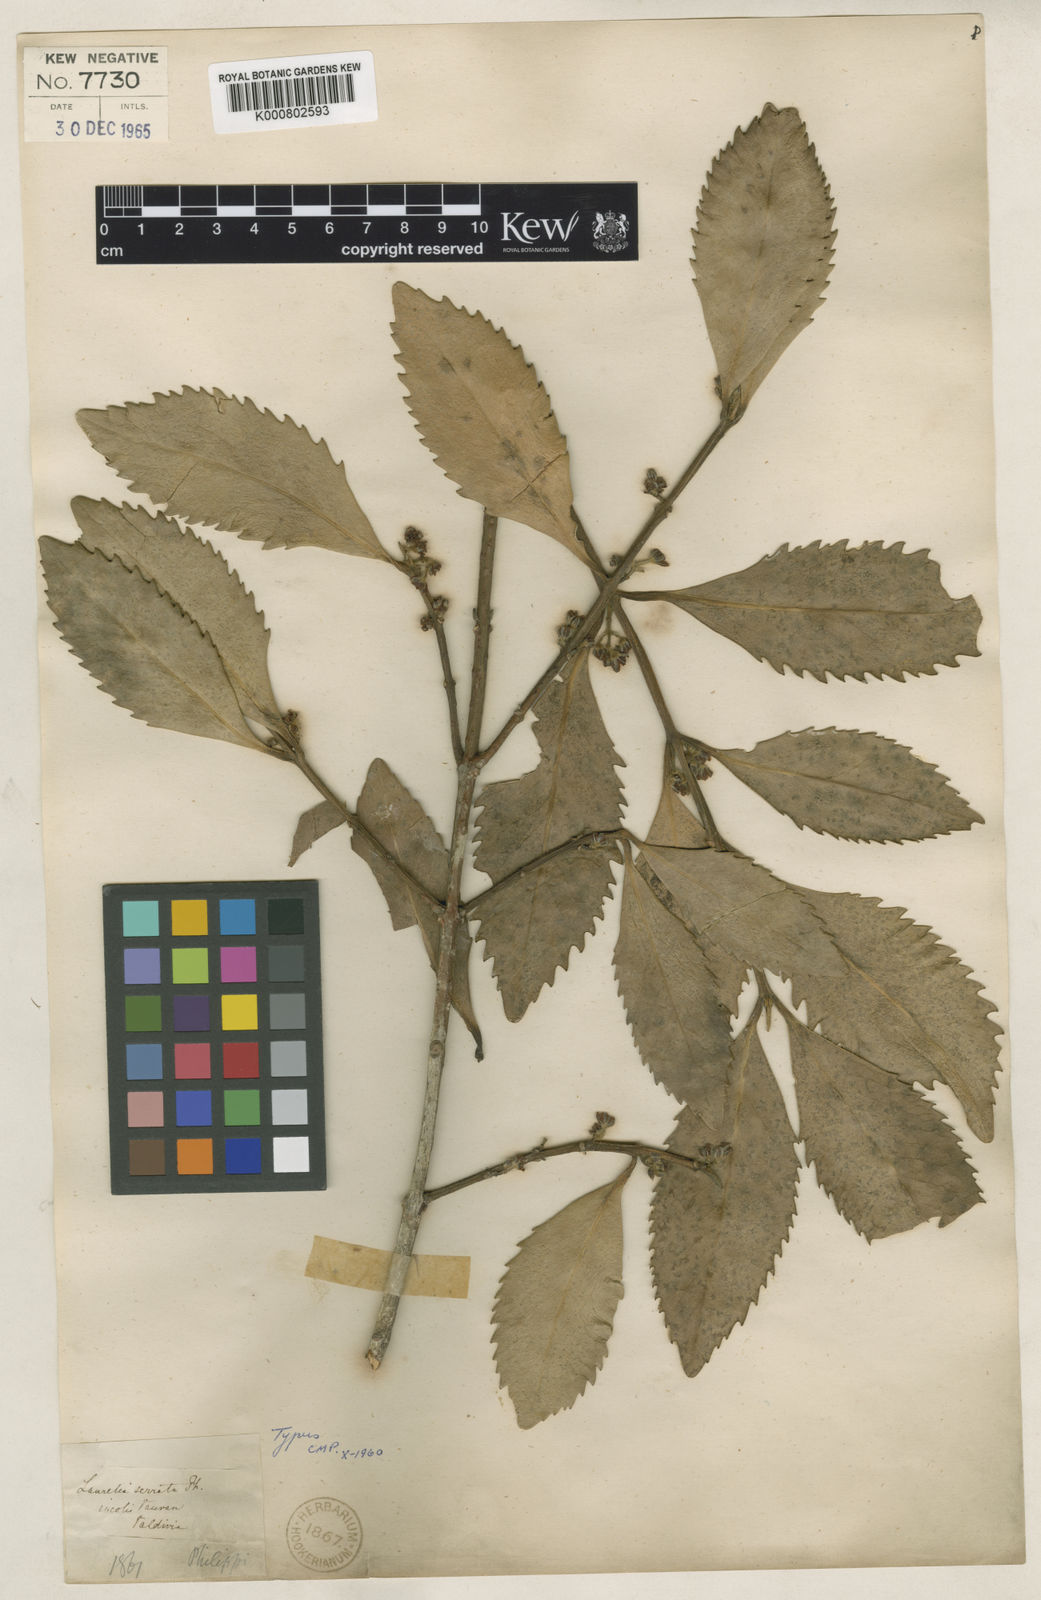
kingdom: Plantae
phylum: Tracheophyta
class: Magnoliopsida
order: Laurales
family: Atherospermataceae
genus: Atherosperma
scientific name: Atherosperma
